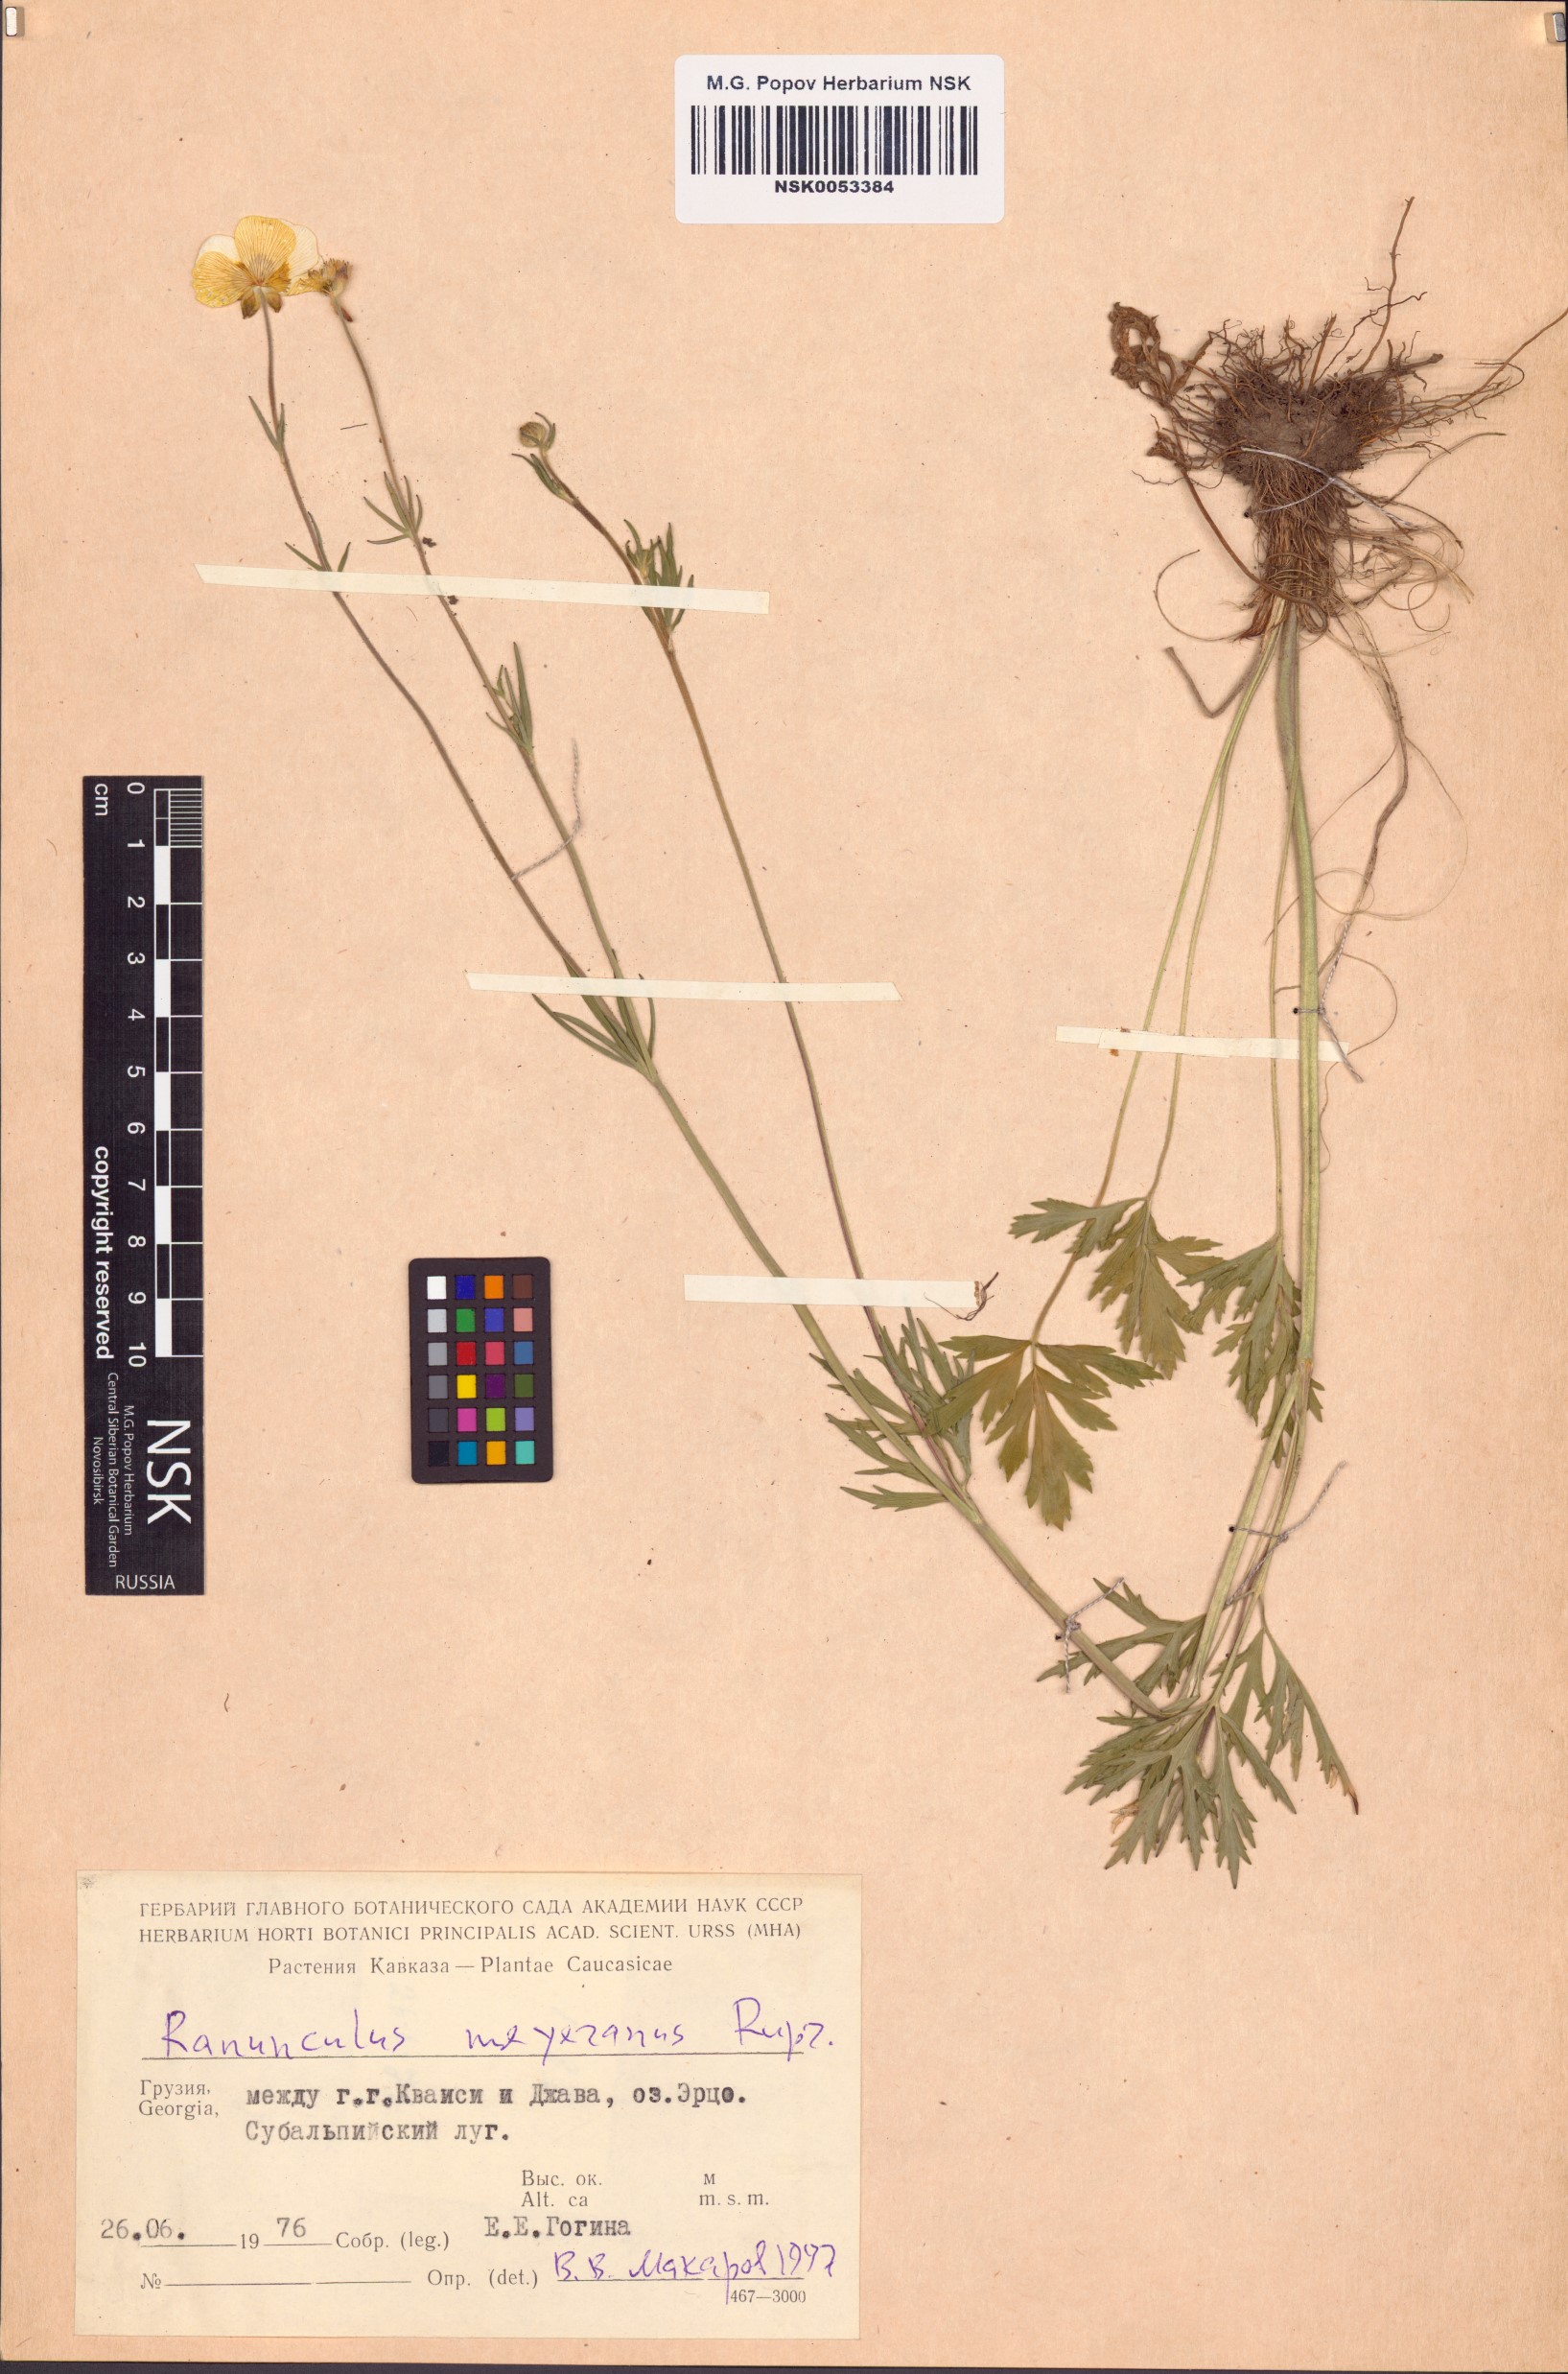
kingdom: Plantae
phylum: Tracheophyta
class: Magnoliopsida
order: Ranunculales
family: Ranunculaceae
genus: Ranunculus
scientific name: Ranunculus polyanthemos
